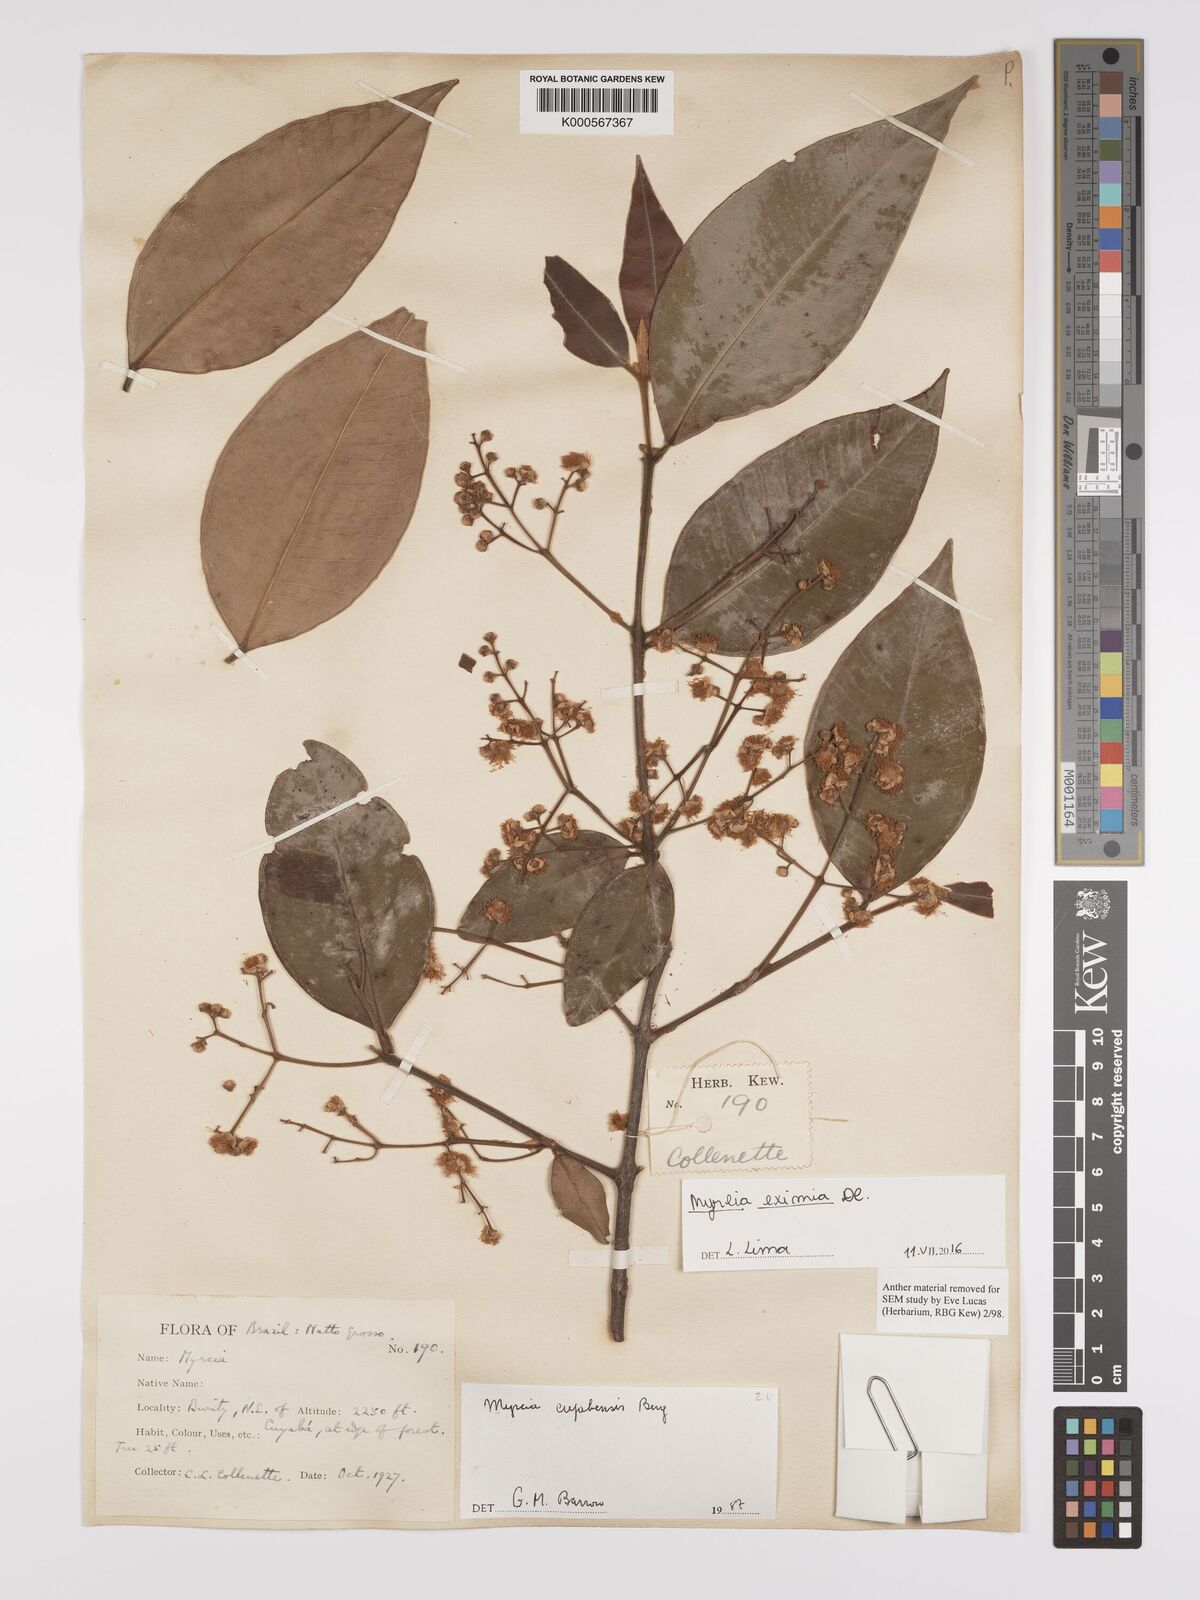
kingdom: Plantae
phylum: Tracheophyta
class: Magnoliopsida
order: Myrtales
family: Myrtaceae
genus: Myrcia
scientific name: Myrcia eximia
